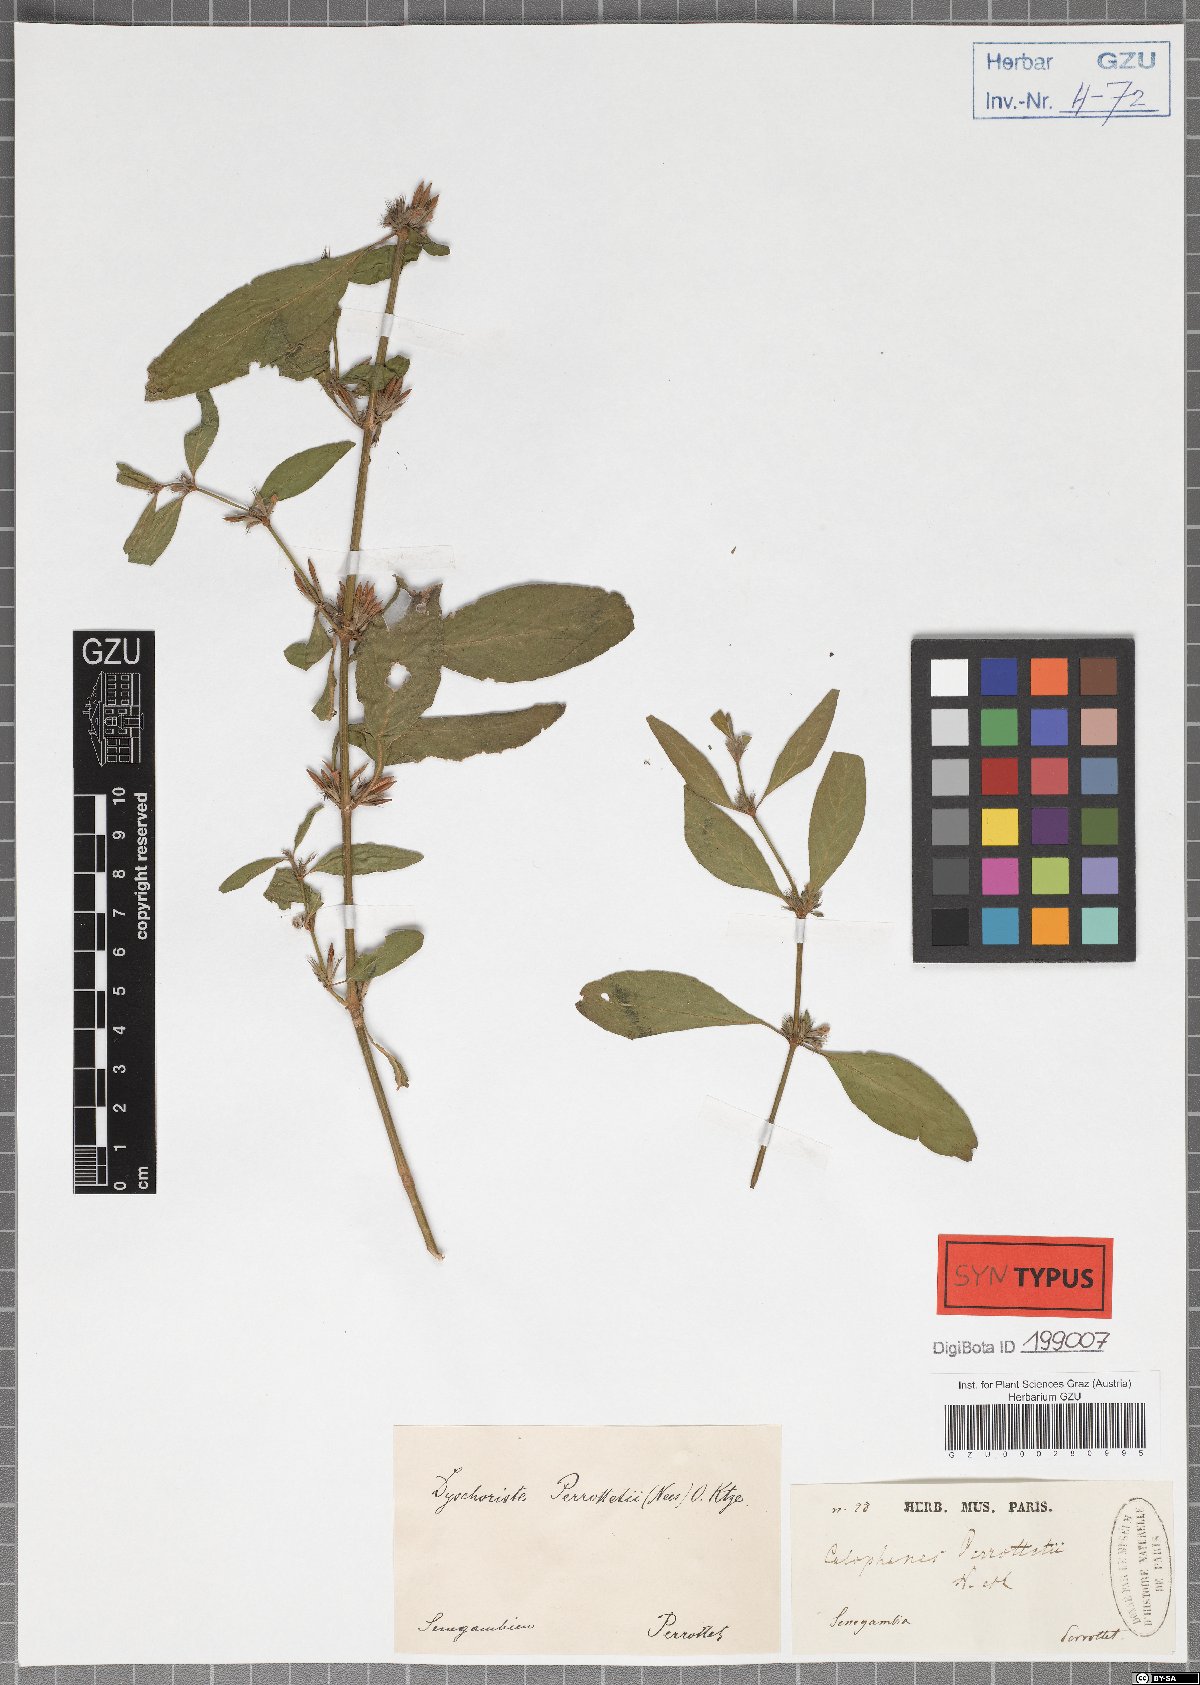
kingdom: Plantae
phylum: Tracheophyta
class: Magnoliopsida
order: Lamiales
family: Acanthaceae
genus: Dyschoriste
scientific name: Dyschoriste nagchana
